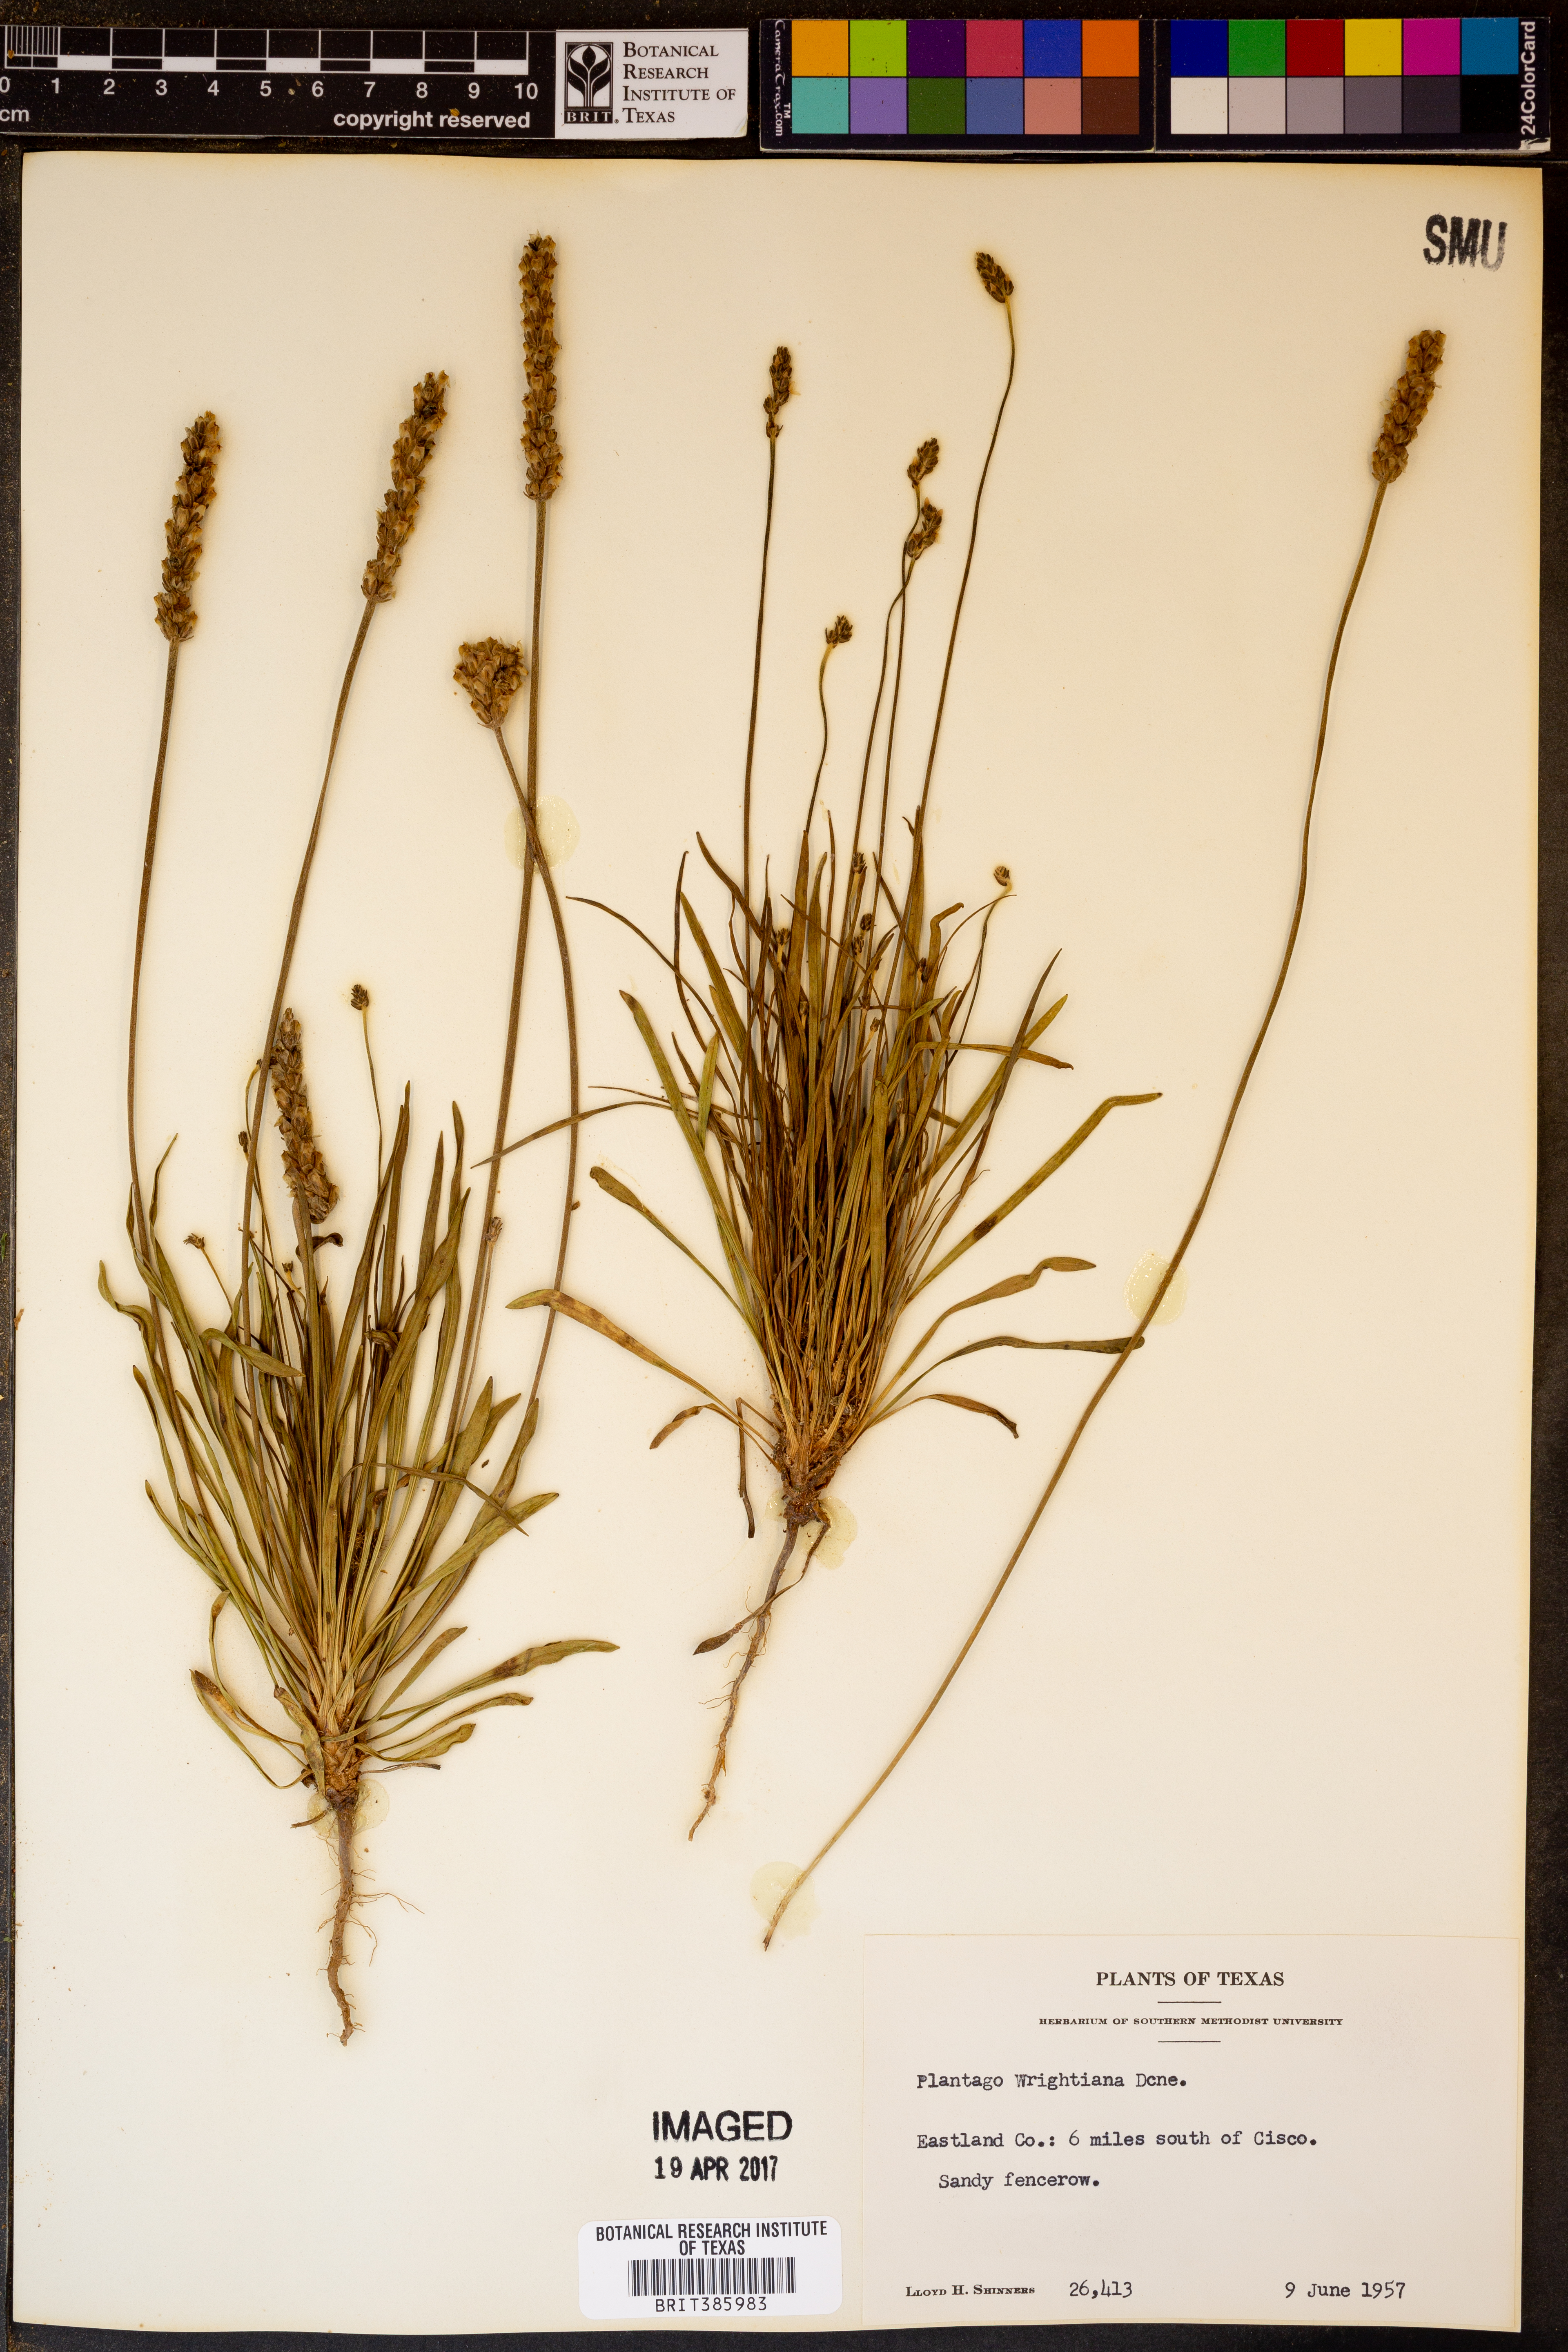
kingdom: Plantae
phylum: Tracheophyta
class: Magnoliopsida
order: Lamiales
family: Plantaginaceae
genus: Plantago
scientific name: Plantago wrightiana
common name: Wright's plantain
